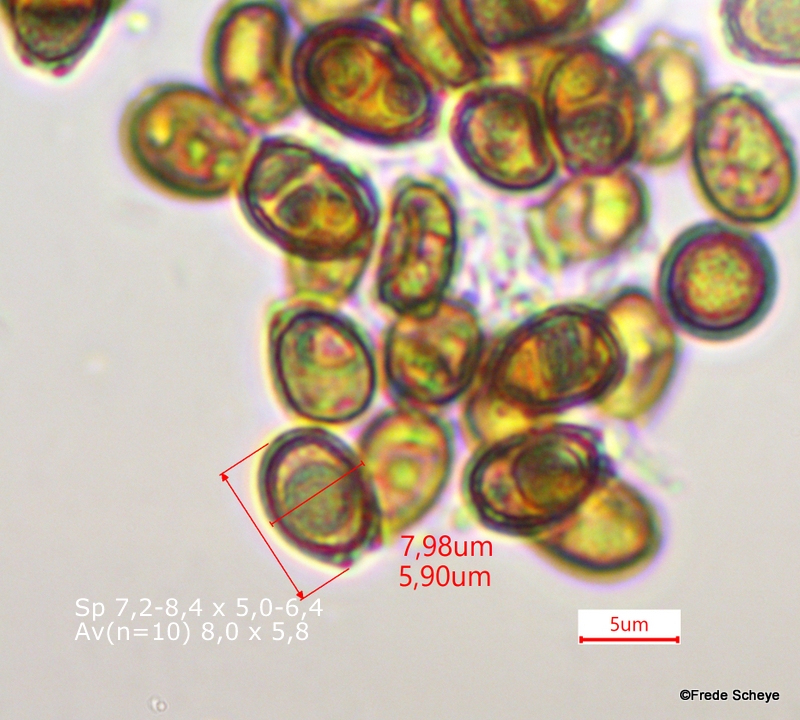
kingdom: Fungi
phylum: Basidiomycota
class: Agaricomycetes
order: Polyporales
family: Polyporaceae
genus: Ganoderma
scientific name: Ganoderma applanatum
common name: flad lakporesvamp
